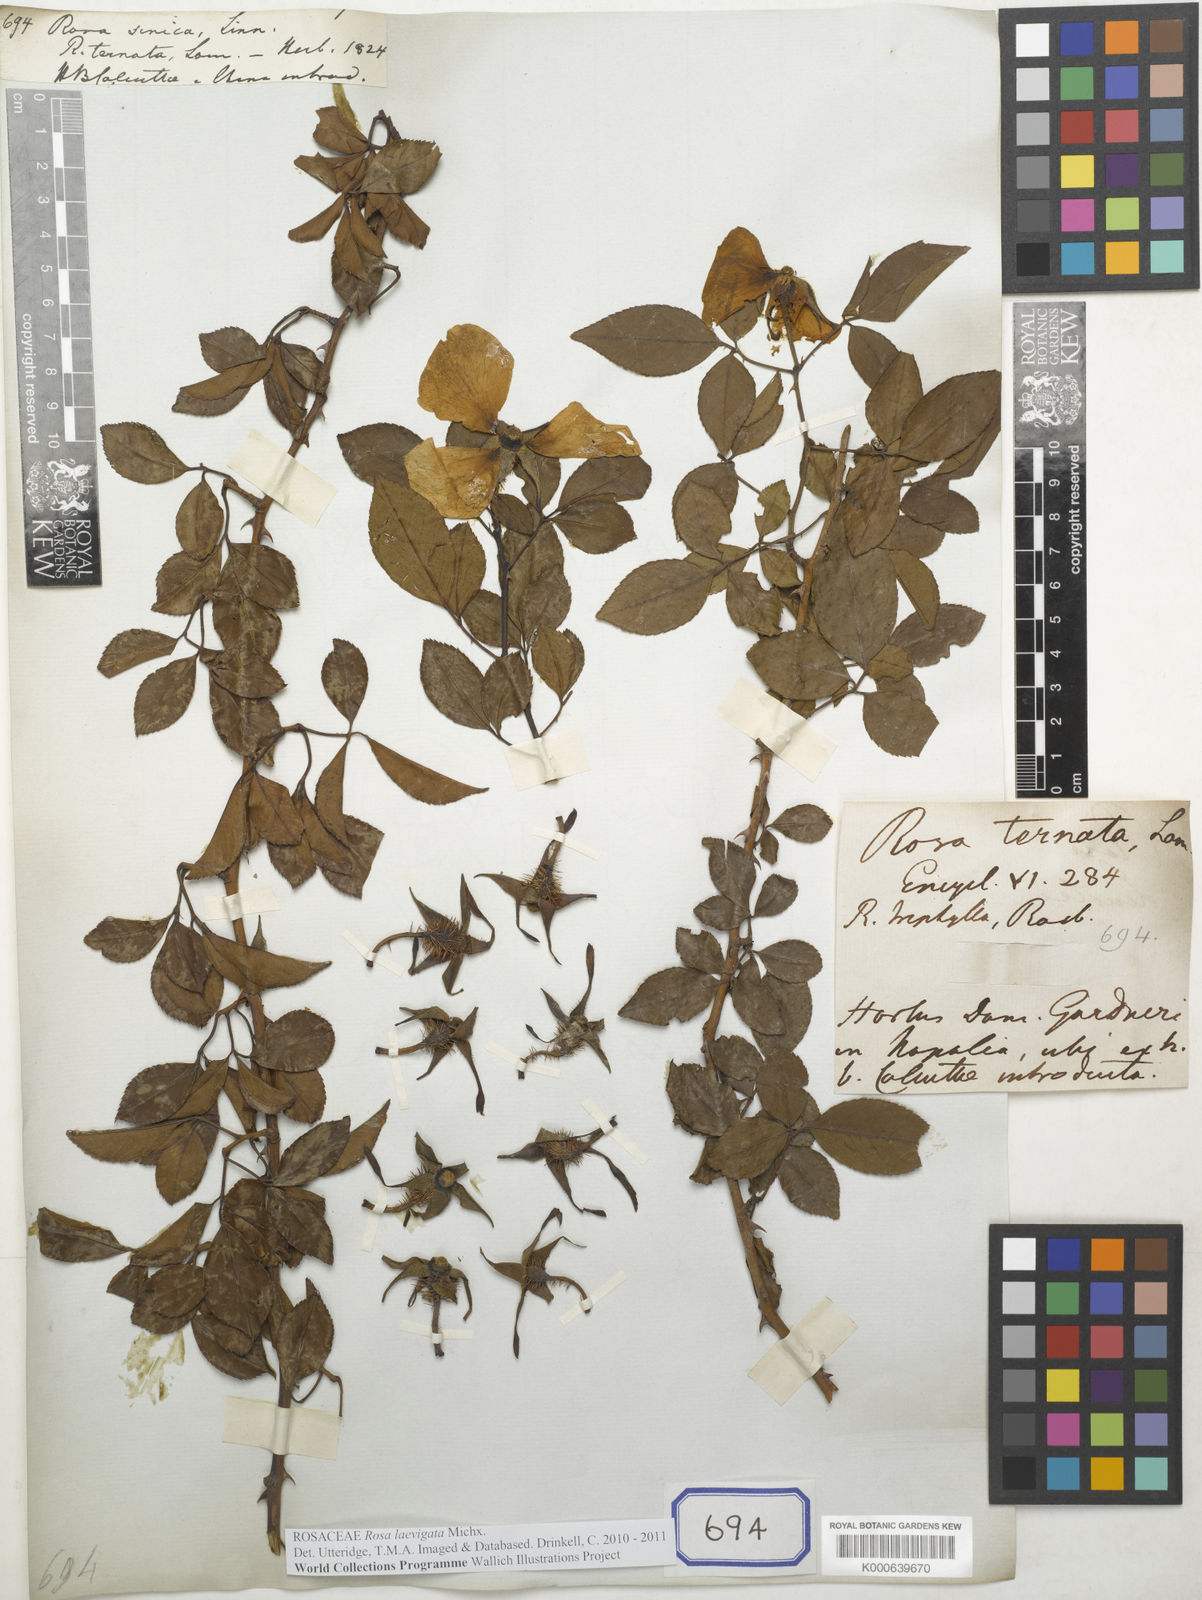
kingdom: Plantae
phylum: Tracheophyta
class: Magnoliopsida
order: Rosales
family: Rosaceae
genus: Rosa
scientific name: Rosa sericea
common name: Silky rose
